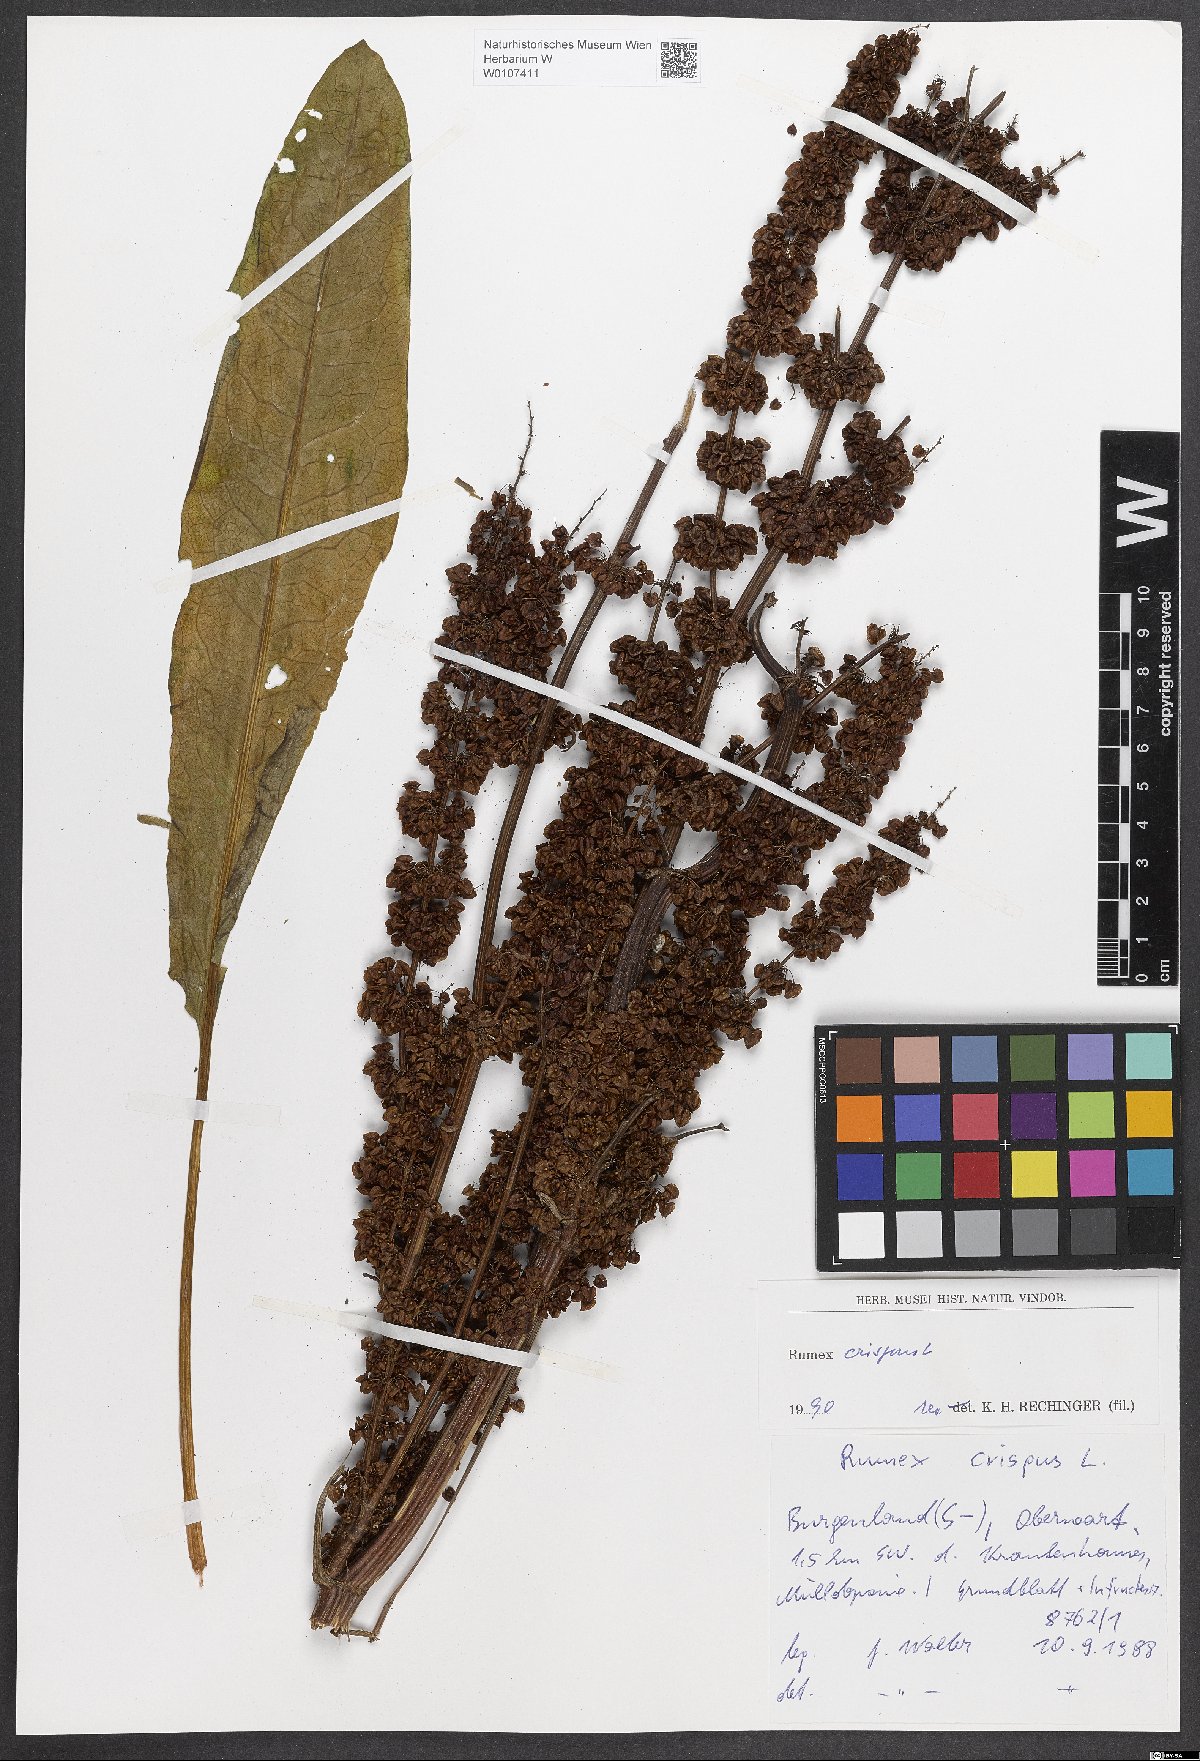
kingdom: Plantae
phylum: Tracheophyta
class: Magnoliopsida
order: Caryophyllales
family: Polygonaceae
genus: Rumex
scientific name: Rumex crispus
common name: Curled dock
